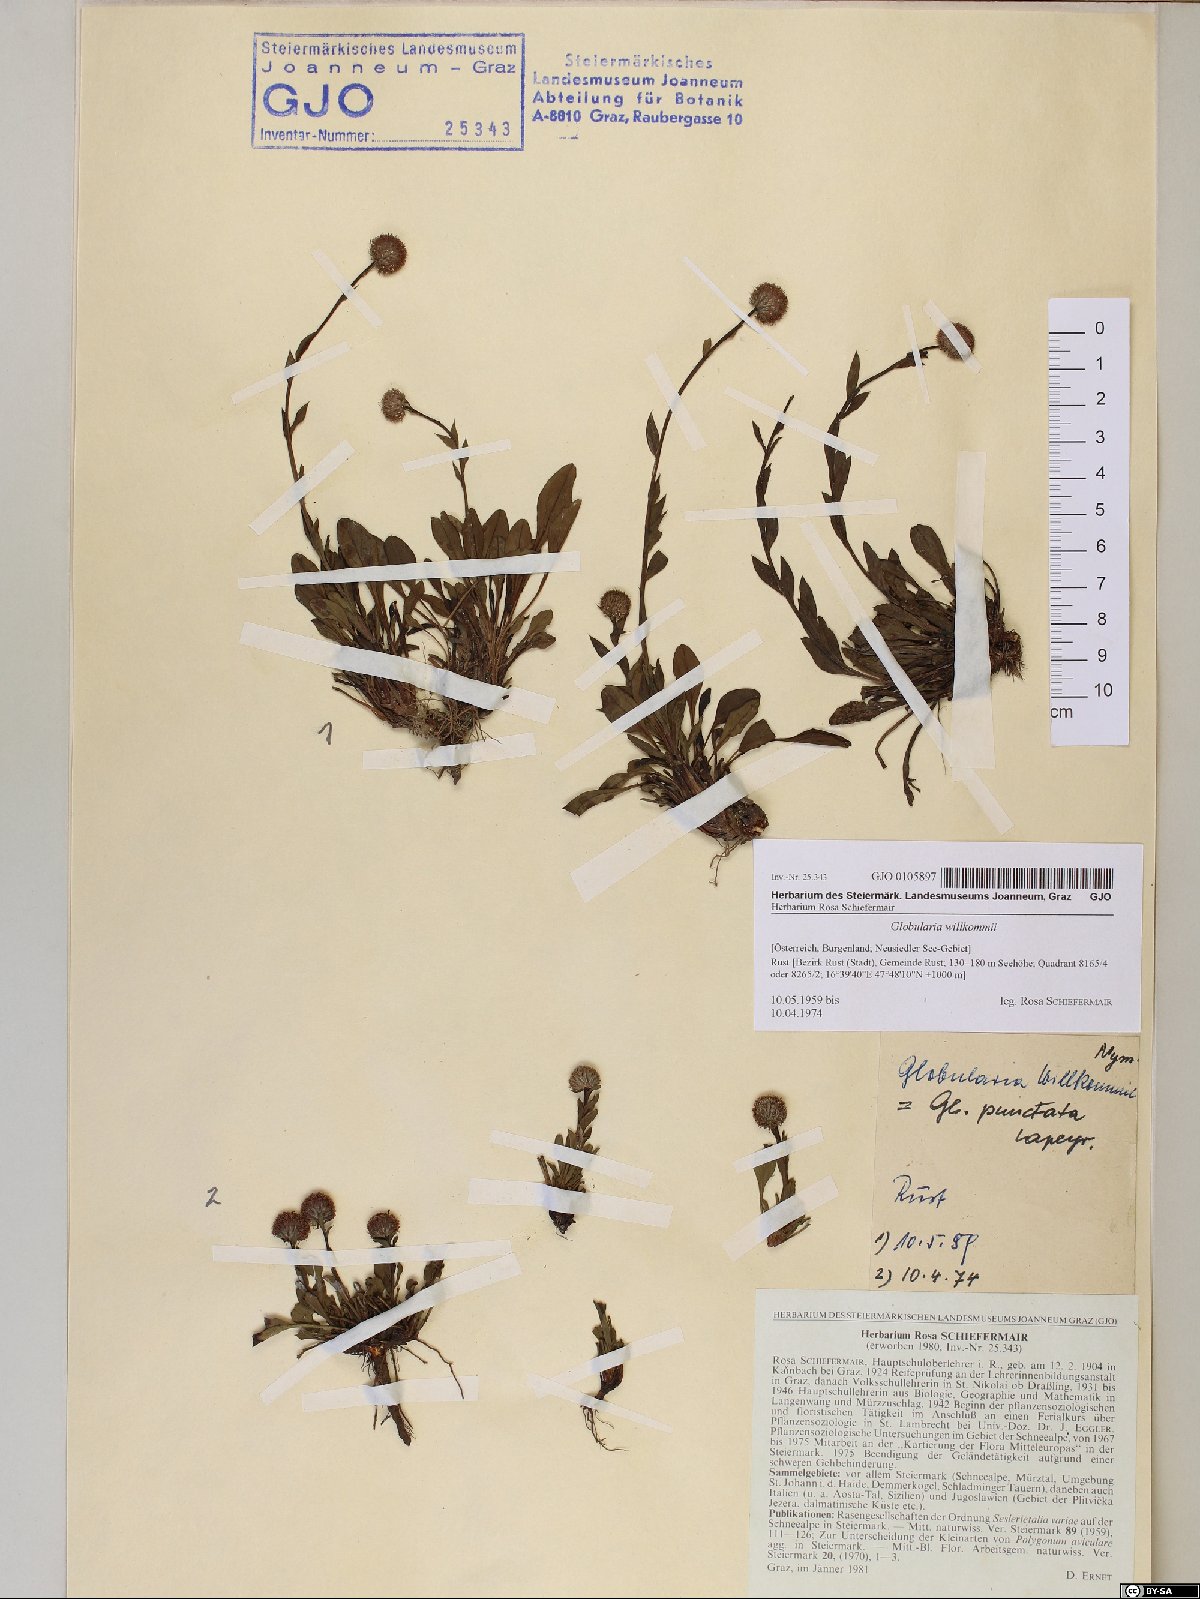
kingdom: Plantae
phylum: Tracheophyta
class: Magnoliopsida
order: Lamiales
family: Plantaginaceae
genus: Globularia
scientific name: Globularia bisnagarica
